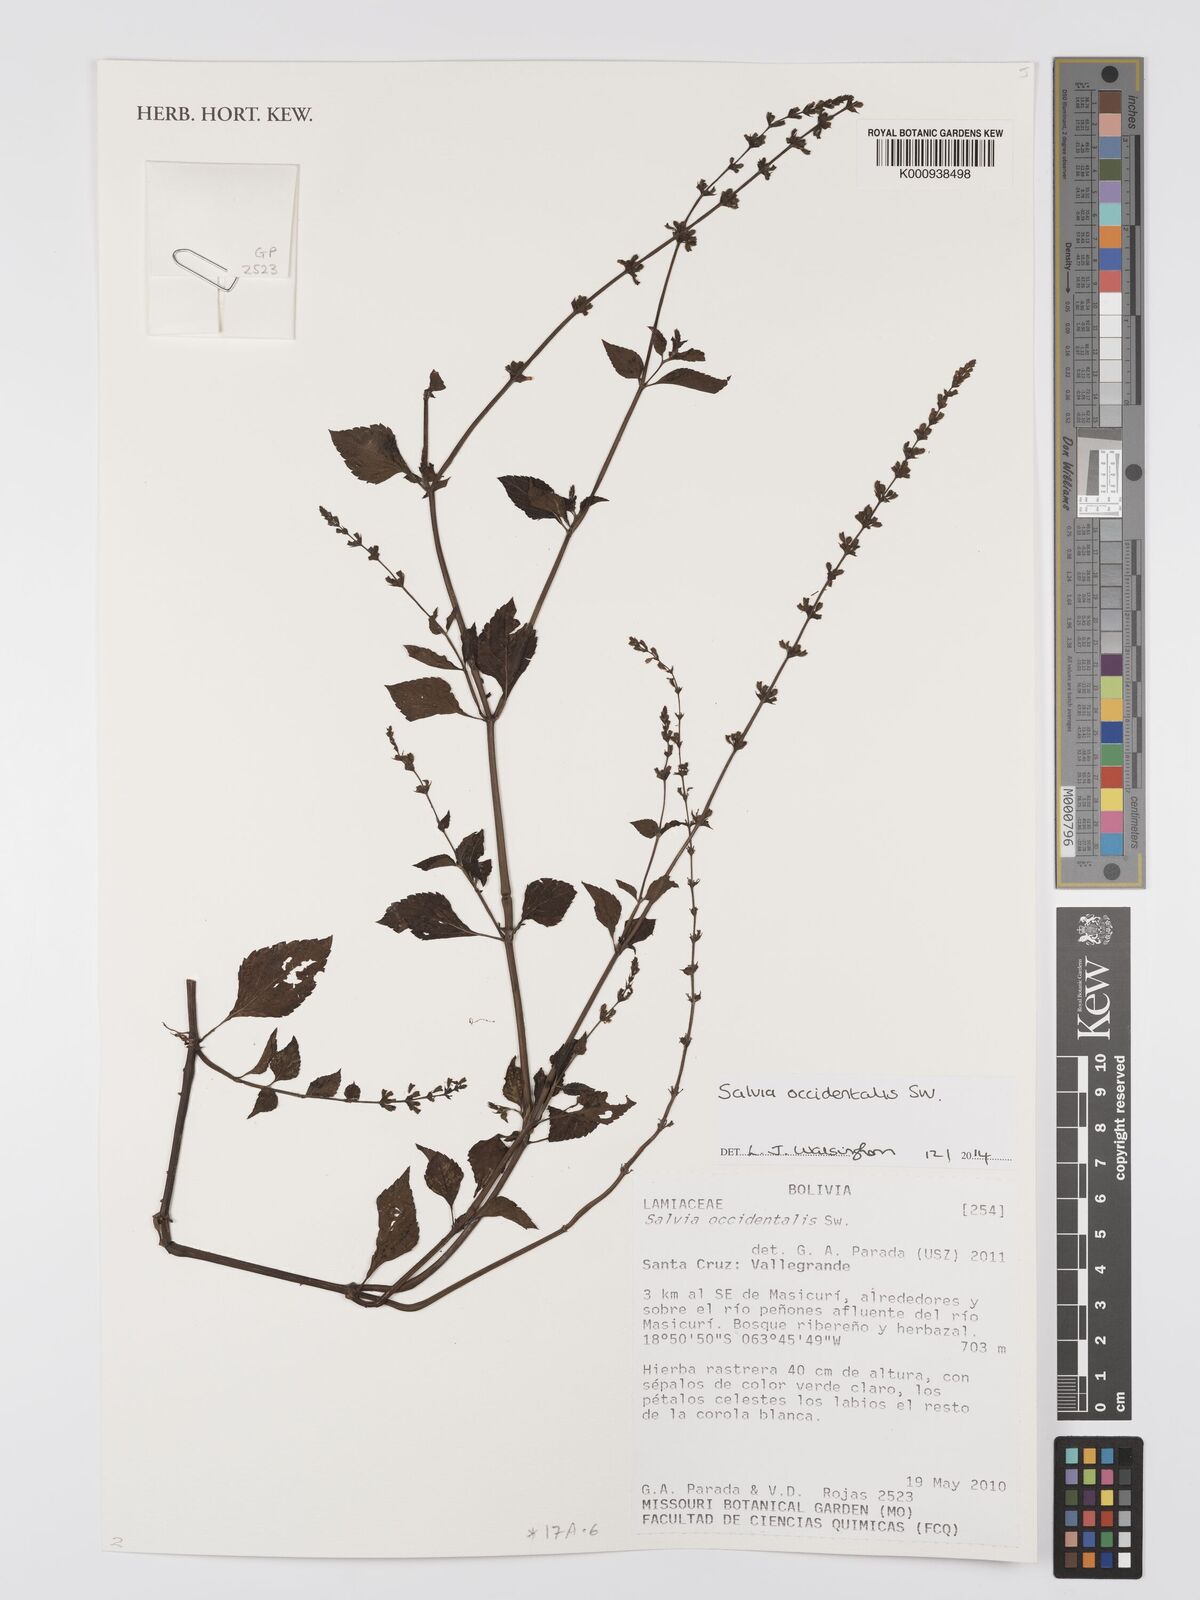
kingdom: Plantae
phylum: Tracheophyta
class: Magnoliopsida
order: Lamiales
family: Lamiaceae
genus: Salvia
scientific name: Salvia occidentalis
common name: West indian sage
